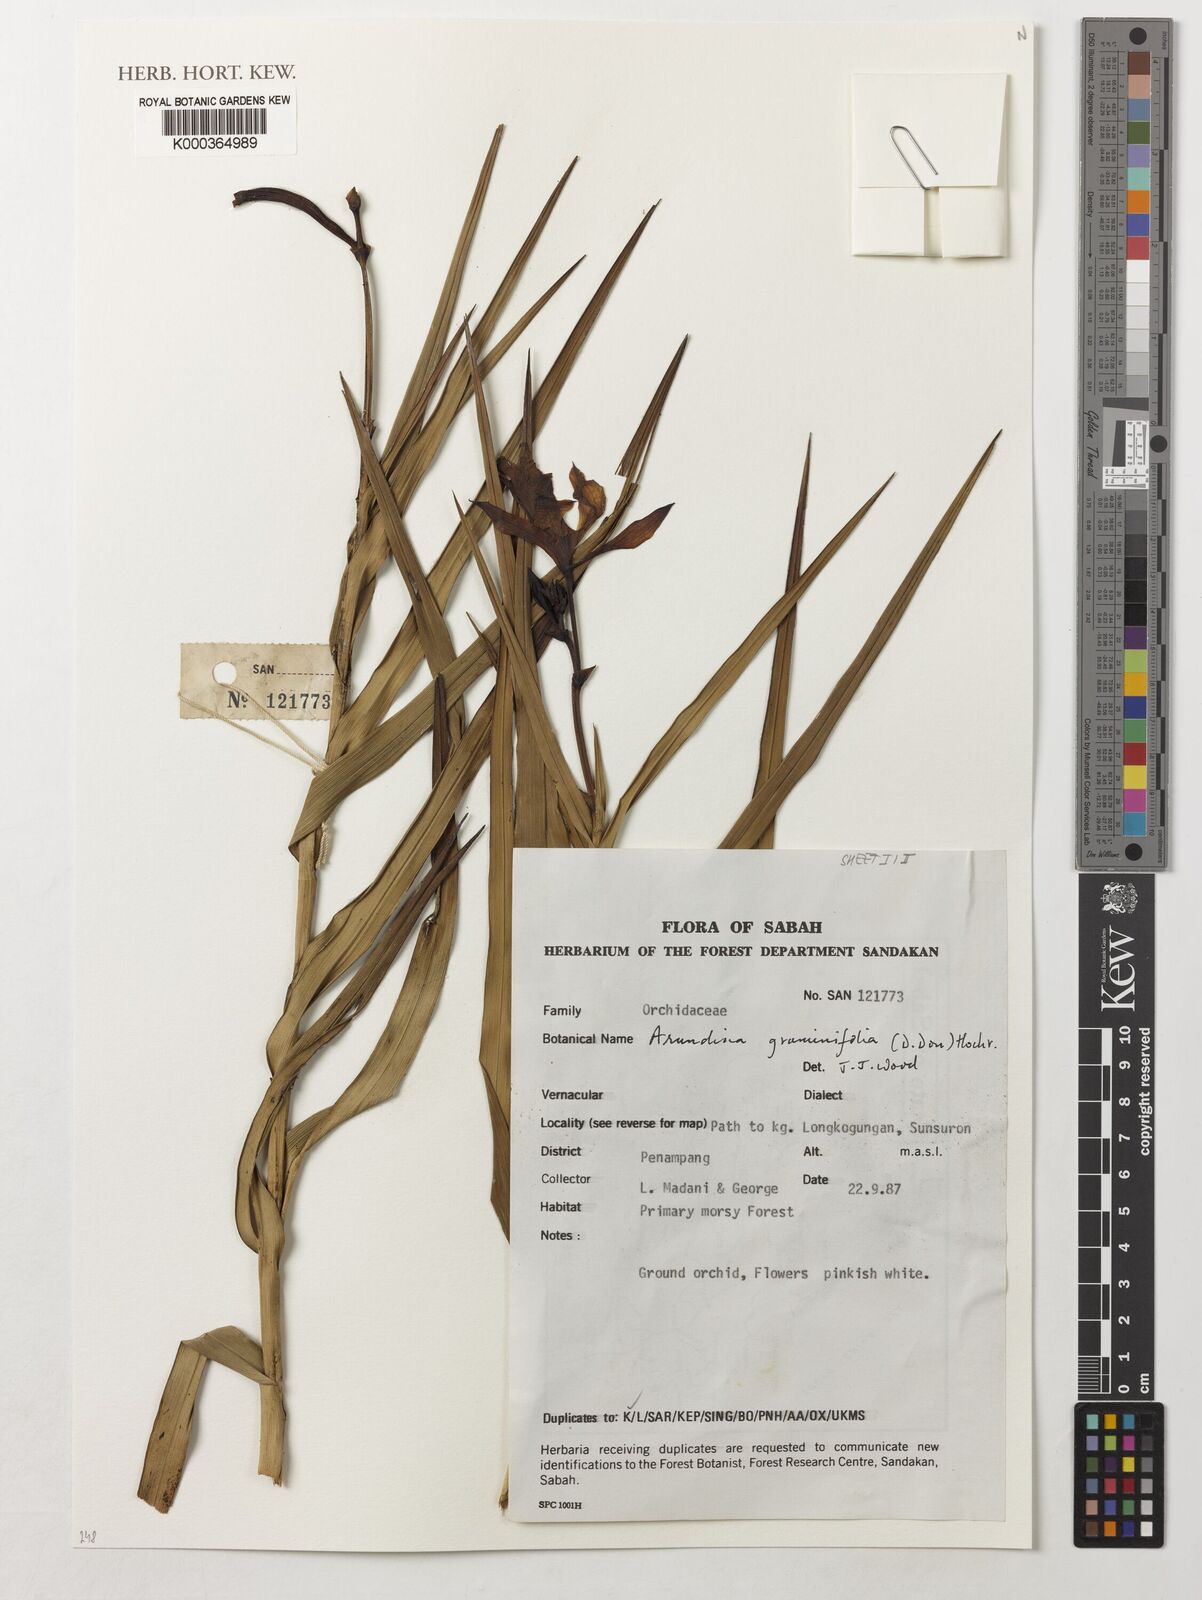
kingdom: Plantae
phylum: Tracheophyta
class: Liliopsida
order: Asparagales
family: Orchidaceae
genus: Arundina
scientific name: Arundina graminifolia
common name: Bamboo orchid
